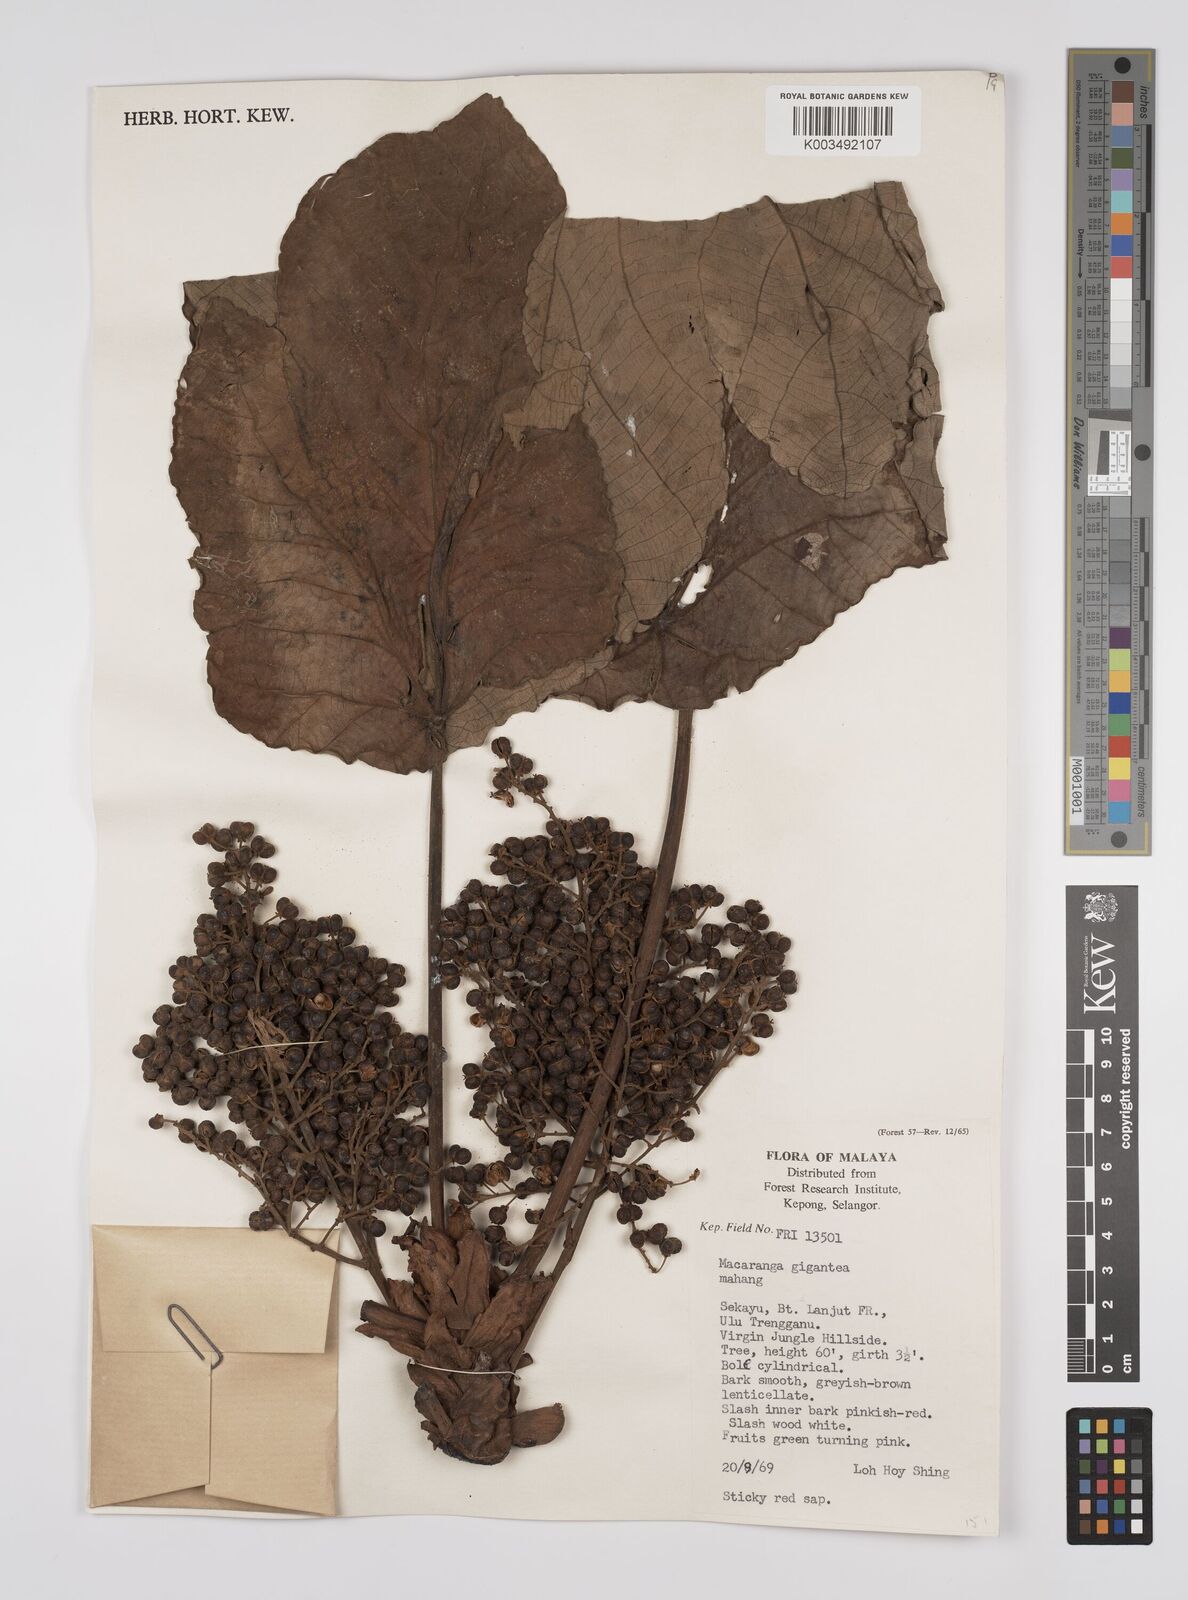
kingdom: Plantae
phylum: Tracheophyta
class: Magnoliopsida
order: Malpighiales
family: Euphorbiaceae
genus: Macaranga
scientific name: Macaranga gigantea
